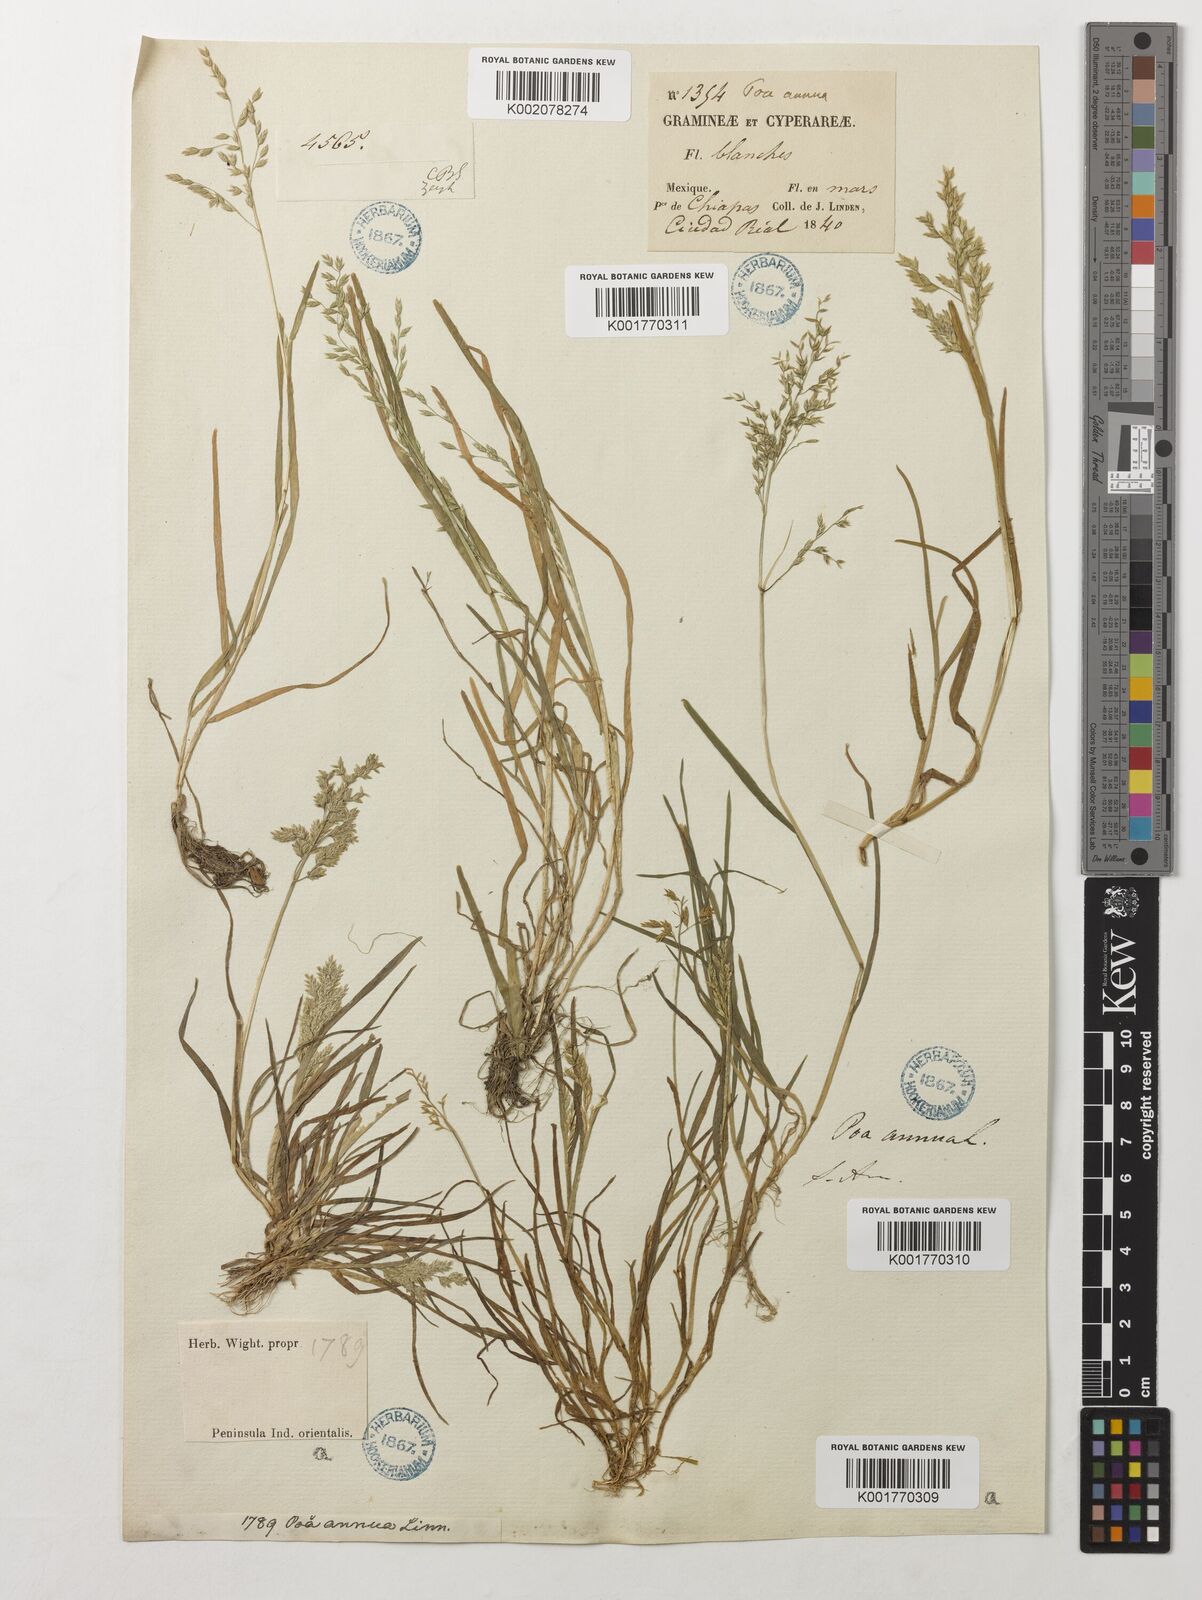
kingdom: Plantae
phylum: Tracheophyta
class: Liliopsida
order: Poales
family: Poaceae
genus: Poa
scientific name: Poa annua
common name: Annual bluegrass
